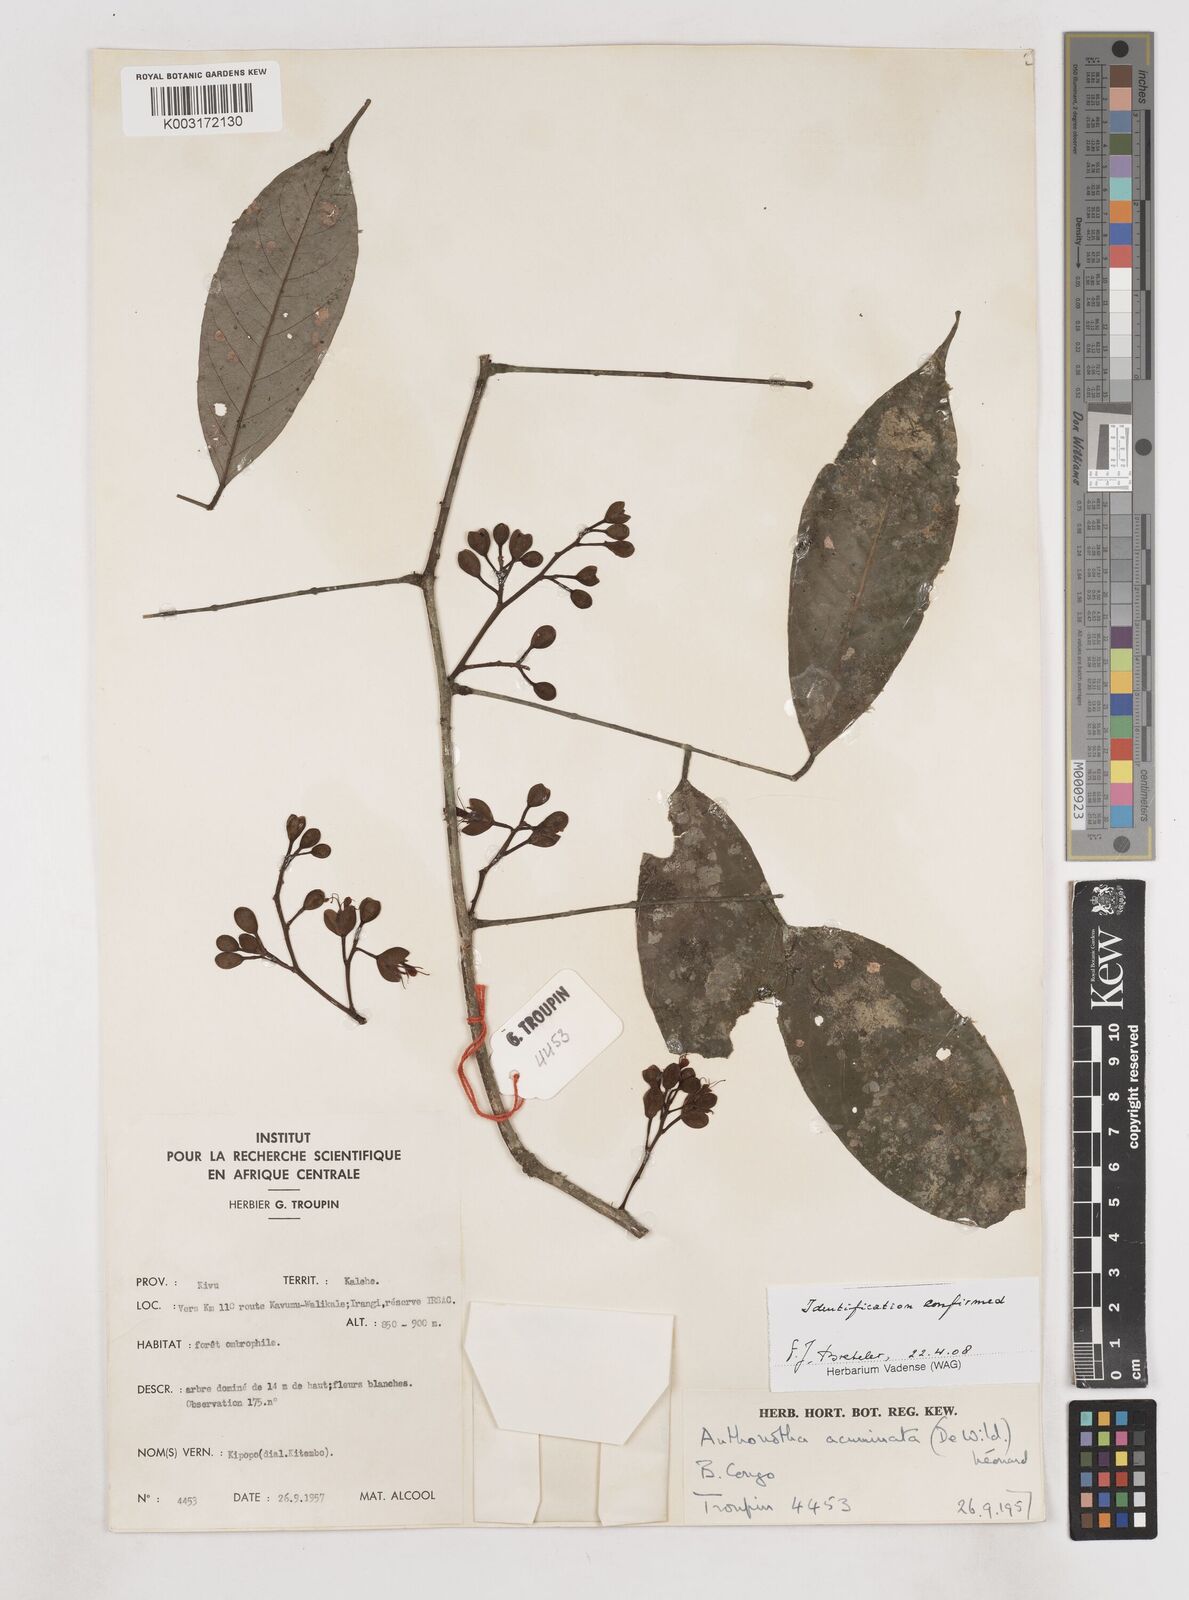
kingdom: Plantae
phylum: Tracheophyta
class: Magnoliopsida
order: Fabales
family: Fabaceae
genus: Anthonotha
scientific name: Anthonotha acuminata
